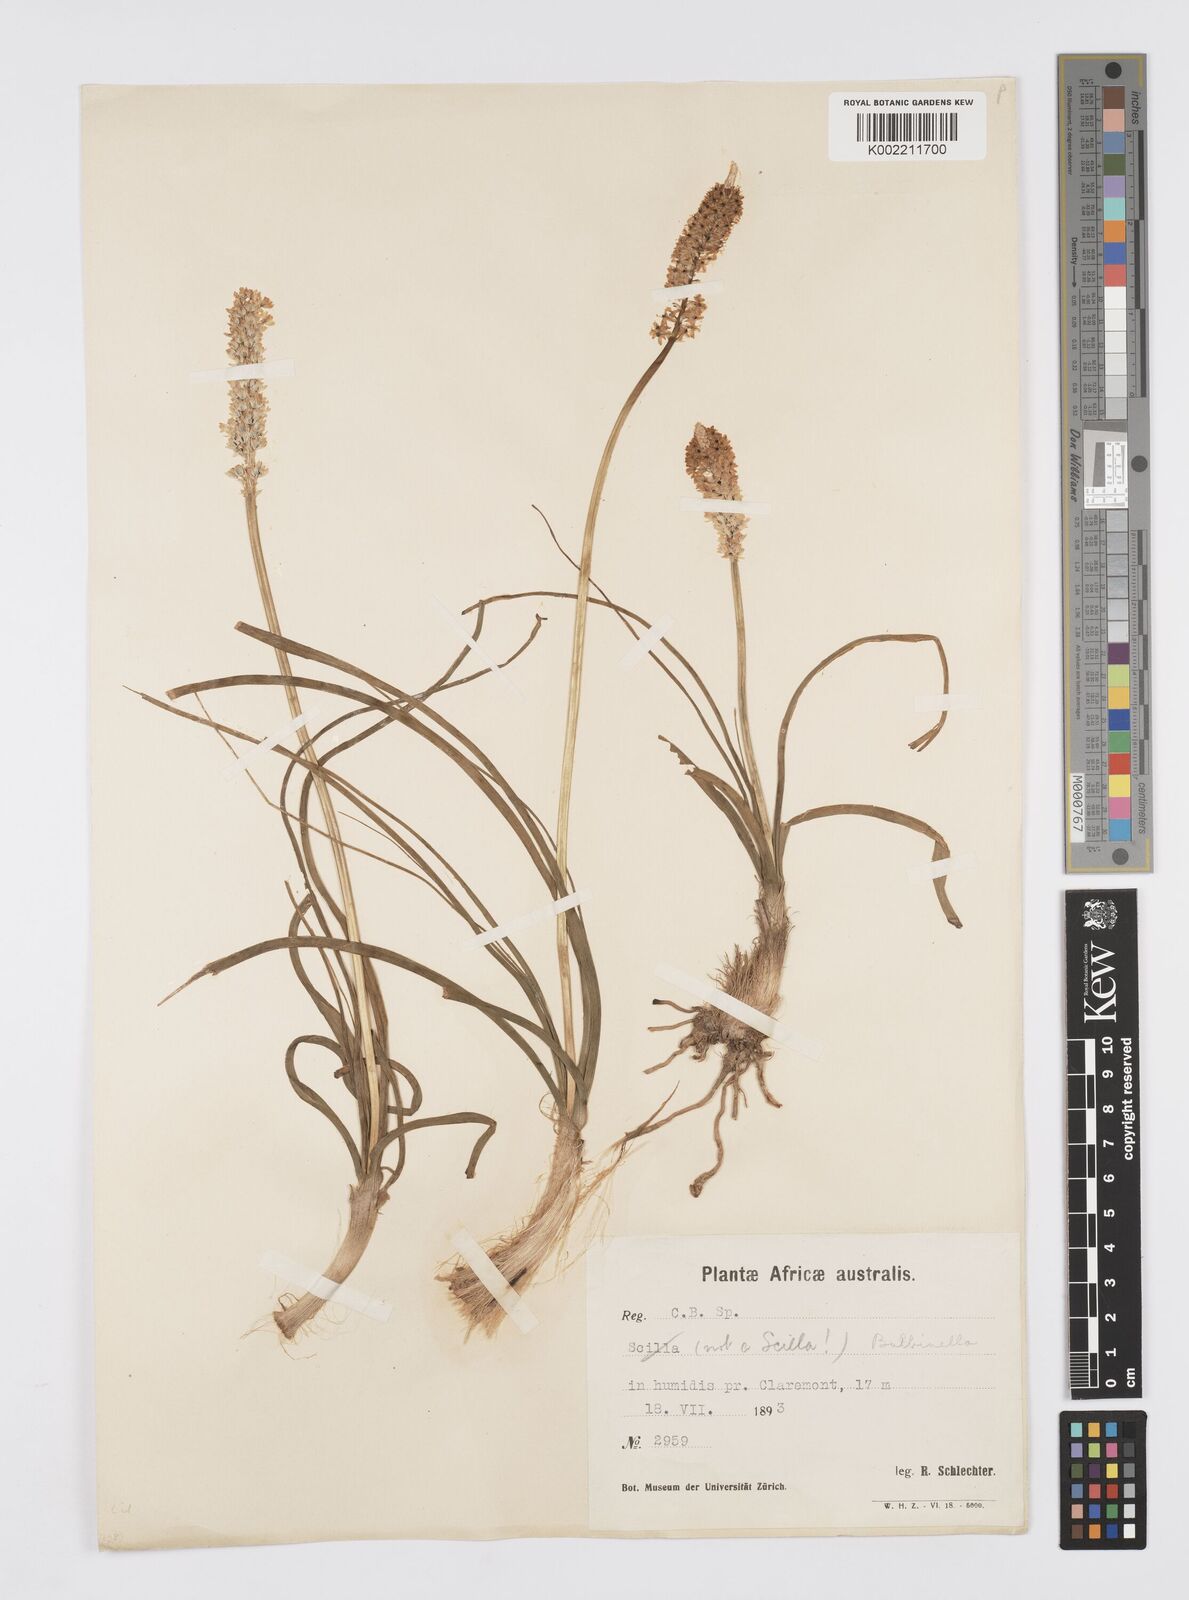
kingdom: Plantae
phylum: Tracheophyta
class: Liliopsida
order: Asparagales
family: Asphodelaceae
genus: Bulbinella
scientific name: Bulbinella cauda-felis
